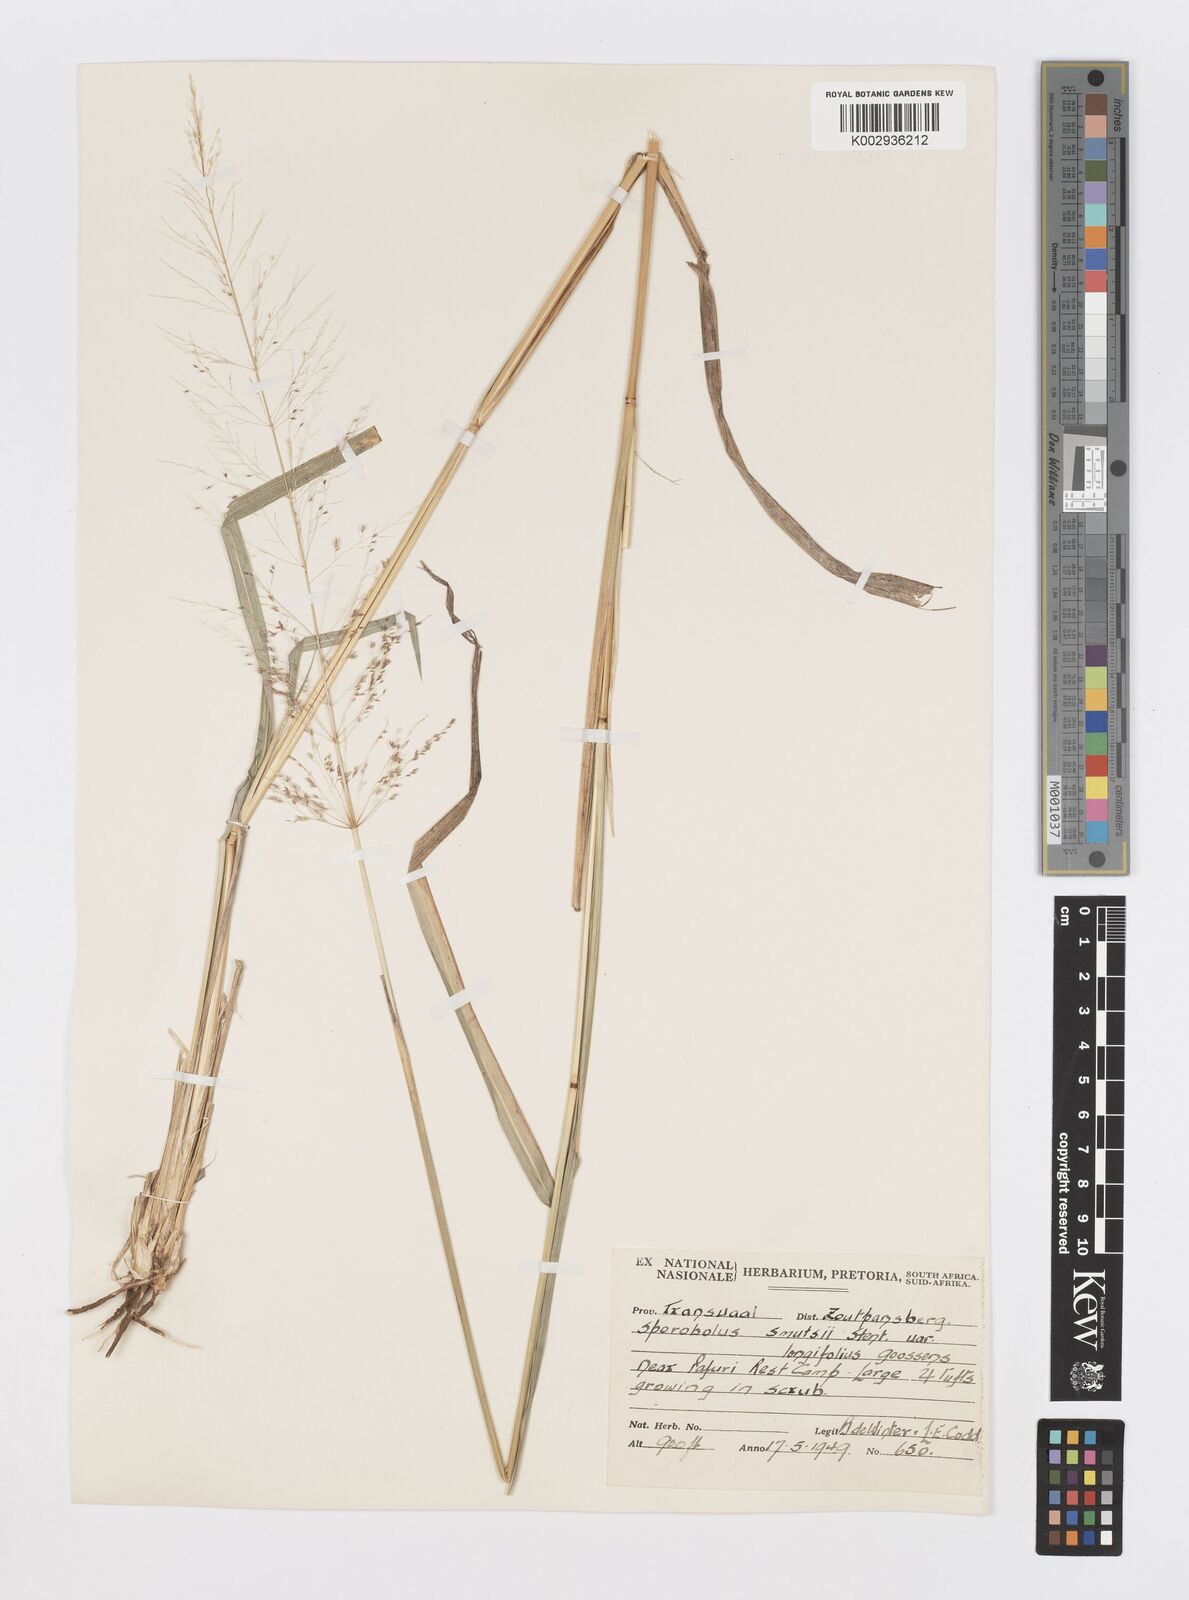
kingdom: Plantae
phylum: Tracheophyta
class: Liliopsida
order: Poales
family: Poaceae
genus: Sporobolus
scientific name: Sporobolus ioclados
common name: Pan dropseed
